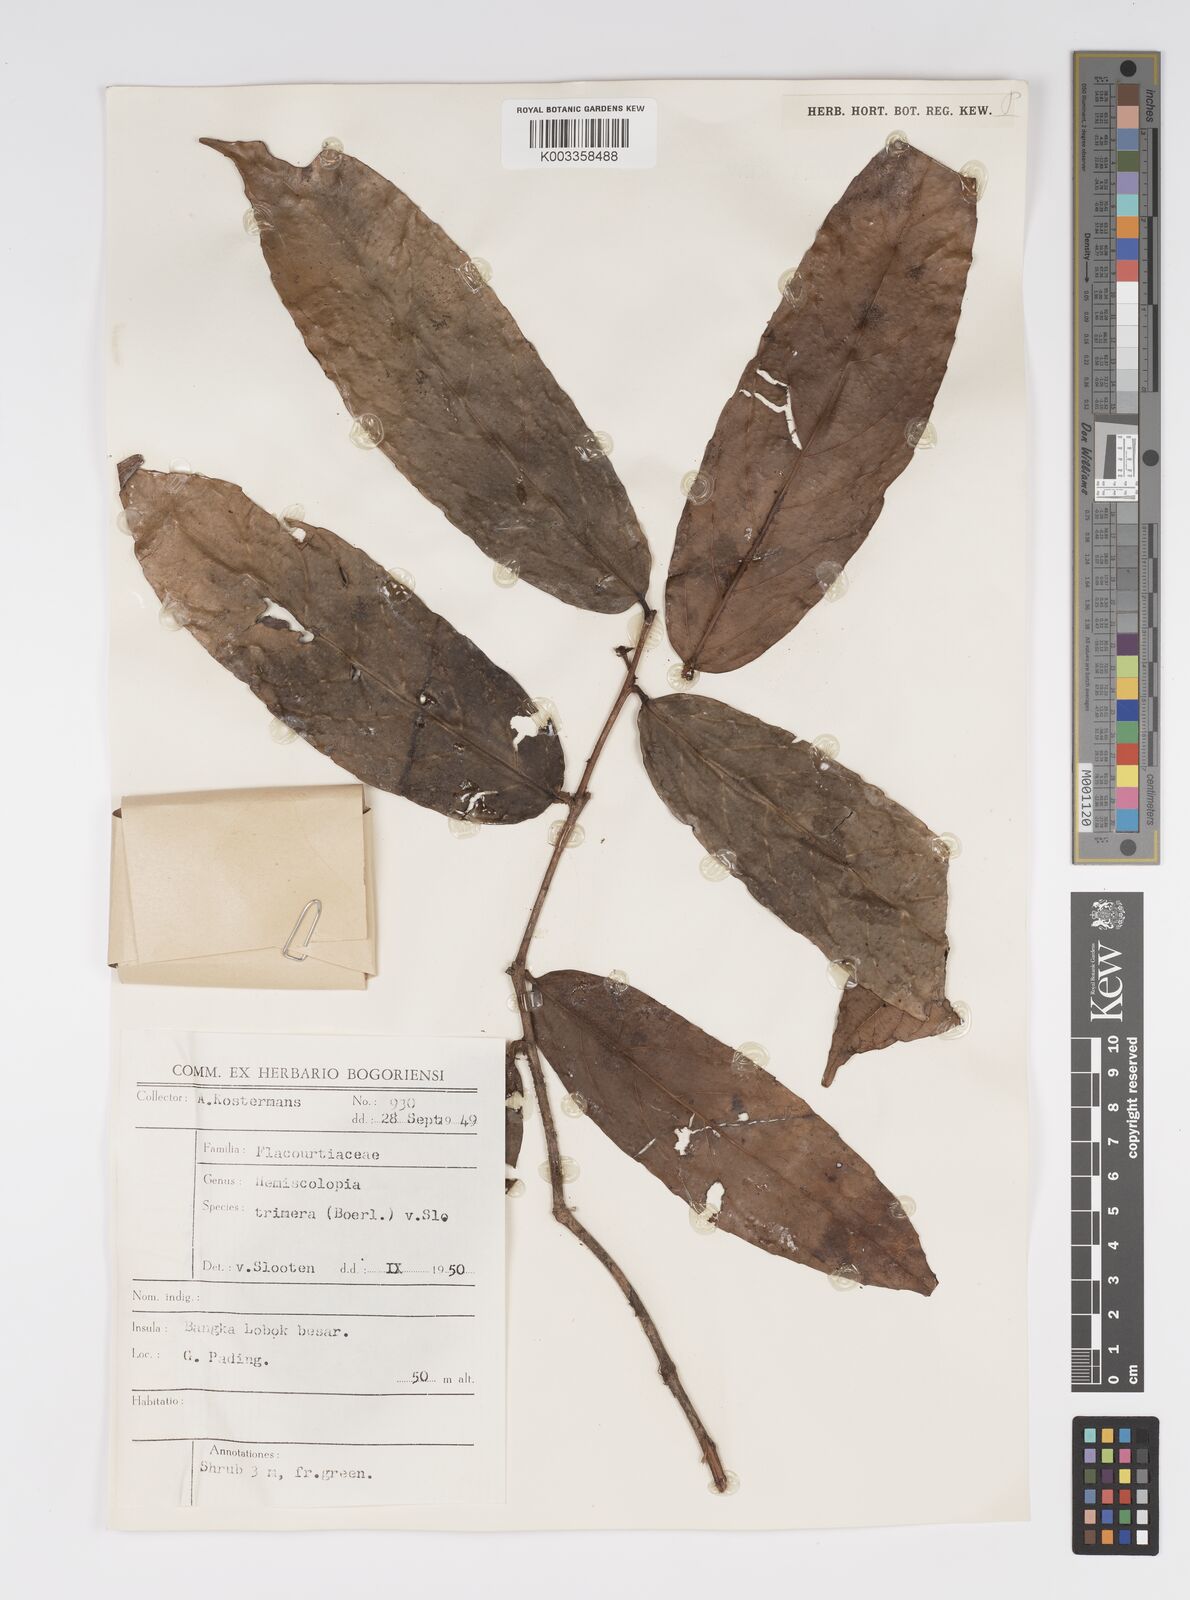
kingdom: Plantae
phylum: Tracheophyta
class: Magnoliopsida
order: Malpighiales
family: Salicaceae
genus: Hemiscolopia
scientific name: Hemiscolopia trimera
